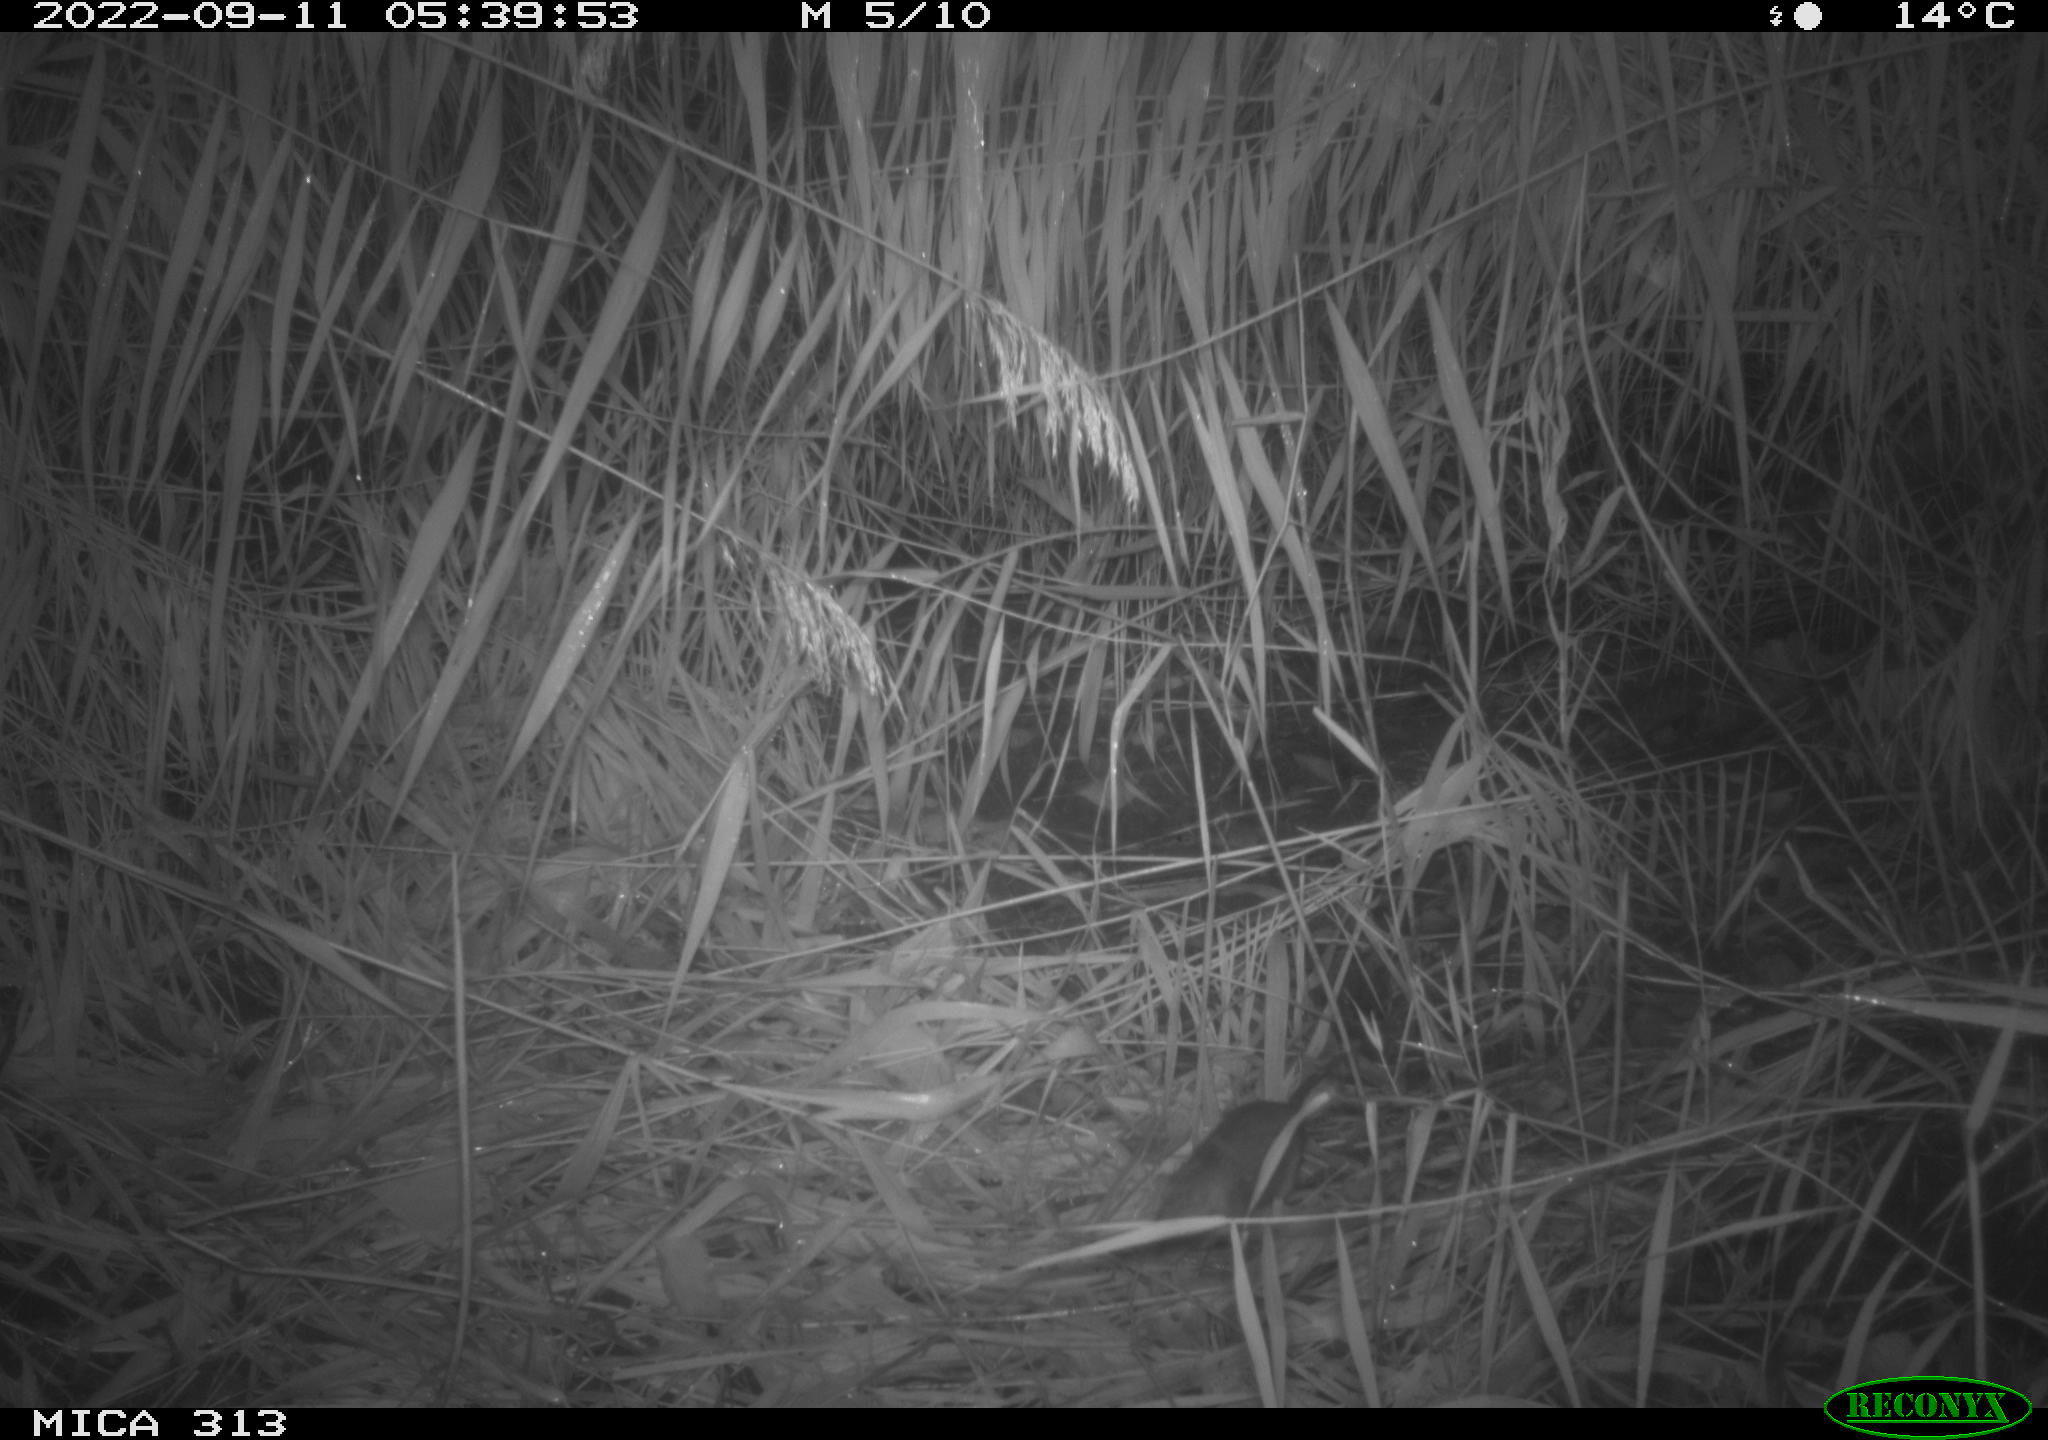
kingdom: Animalia
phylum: Chordata
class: Mammalia
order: Rodentia
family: Muridae
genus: Rattus
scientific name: Rattus norvegicus
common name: Brown rat
